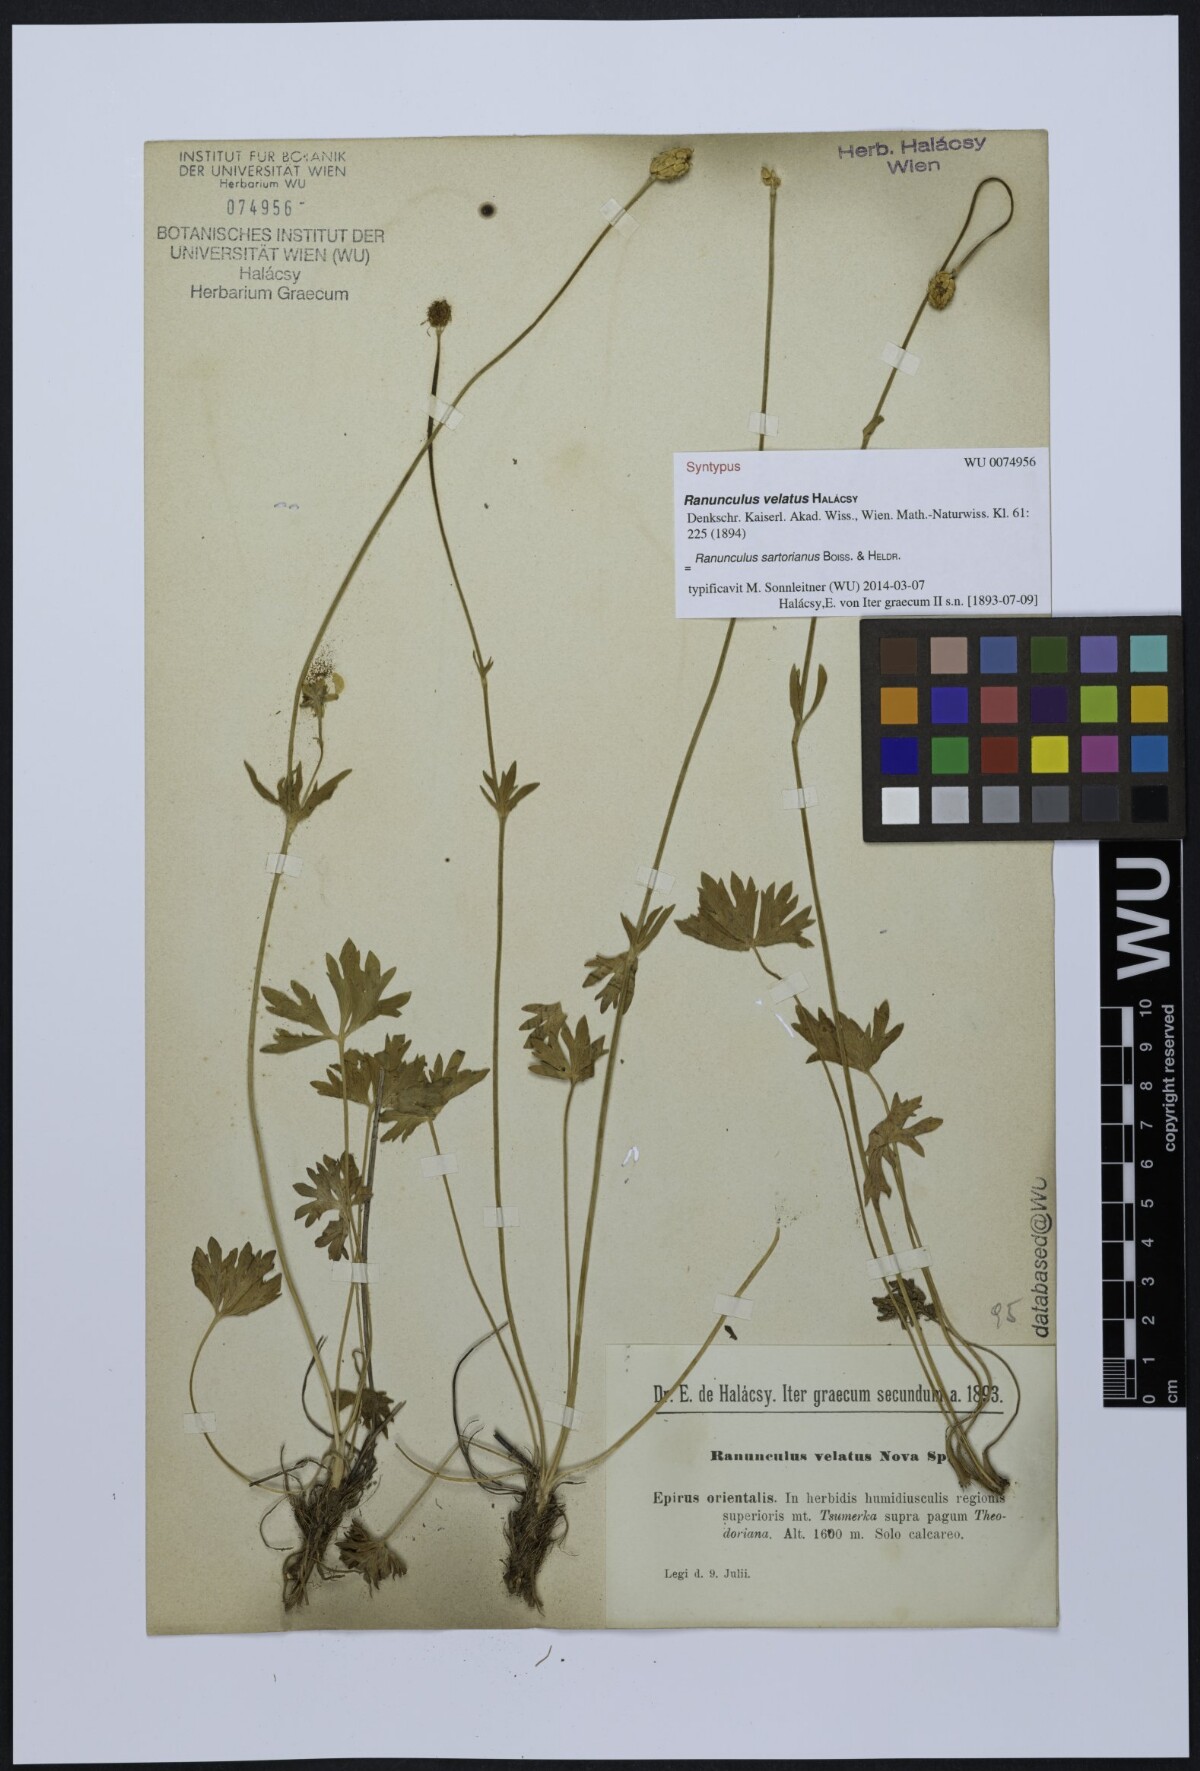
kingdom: Plantae
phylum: Tracheophyta
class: Magnoliopsida
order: Ranunculales
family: Ranunculaceae
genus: Ranunculus
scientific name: Ranunculus sartorianus
